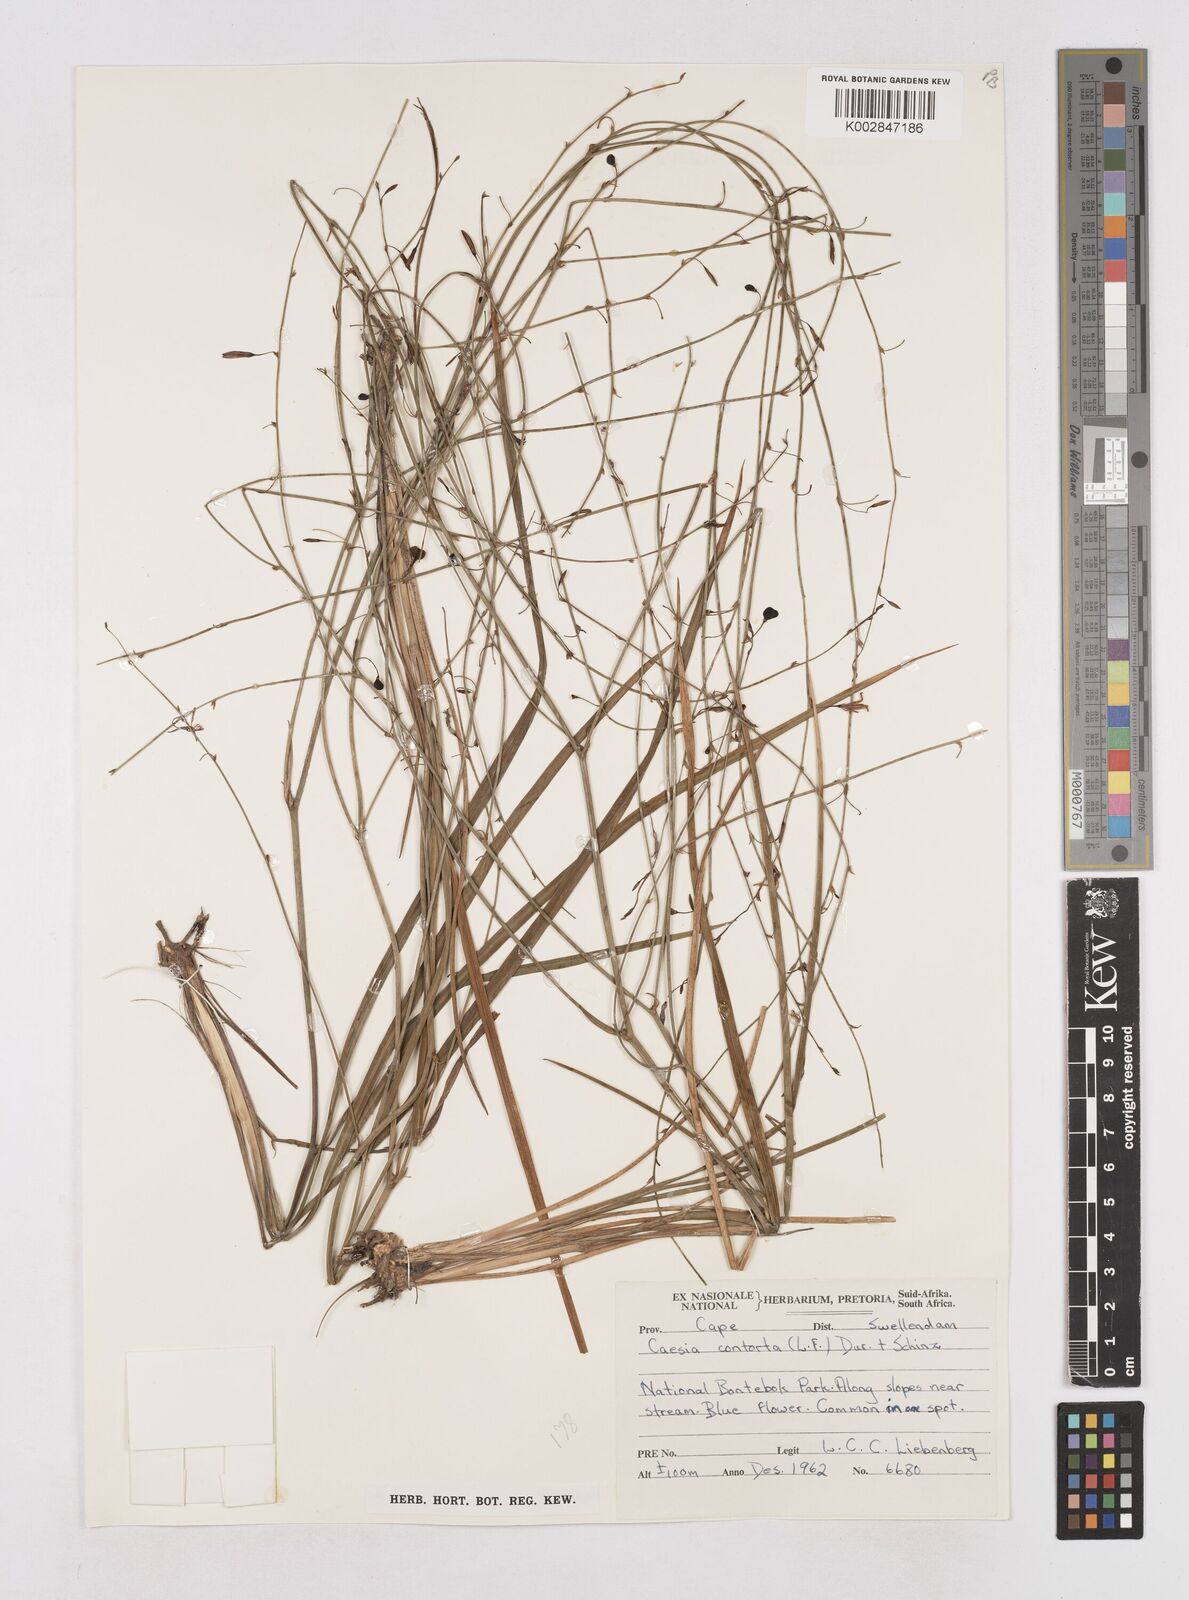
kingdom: Plantae
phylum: Tracheophyta
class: Liliopsida
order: Asparagales
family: Asphodelaceae
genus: Caesia
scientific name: Caesia contorta
